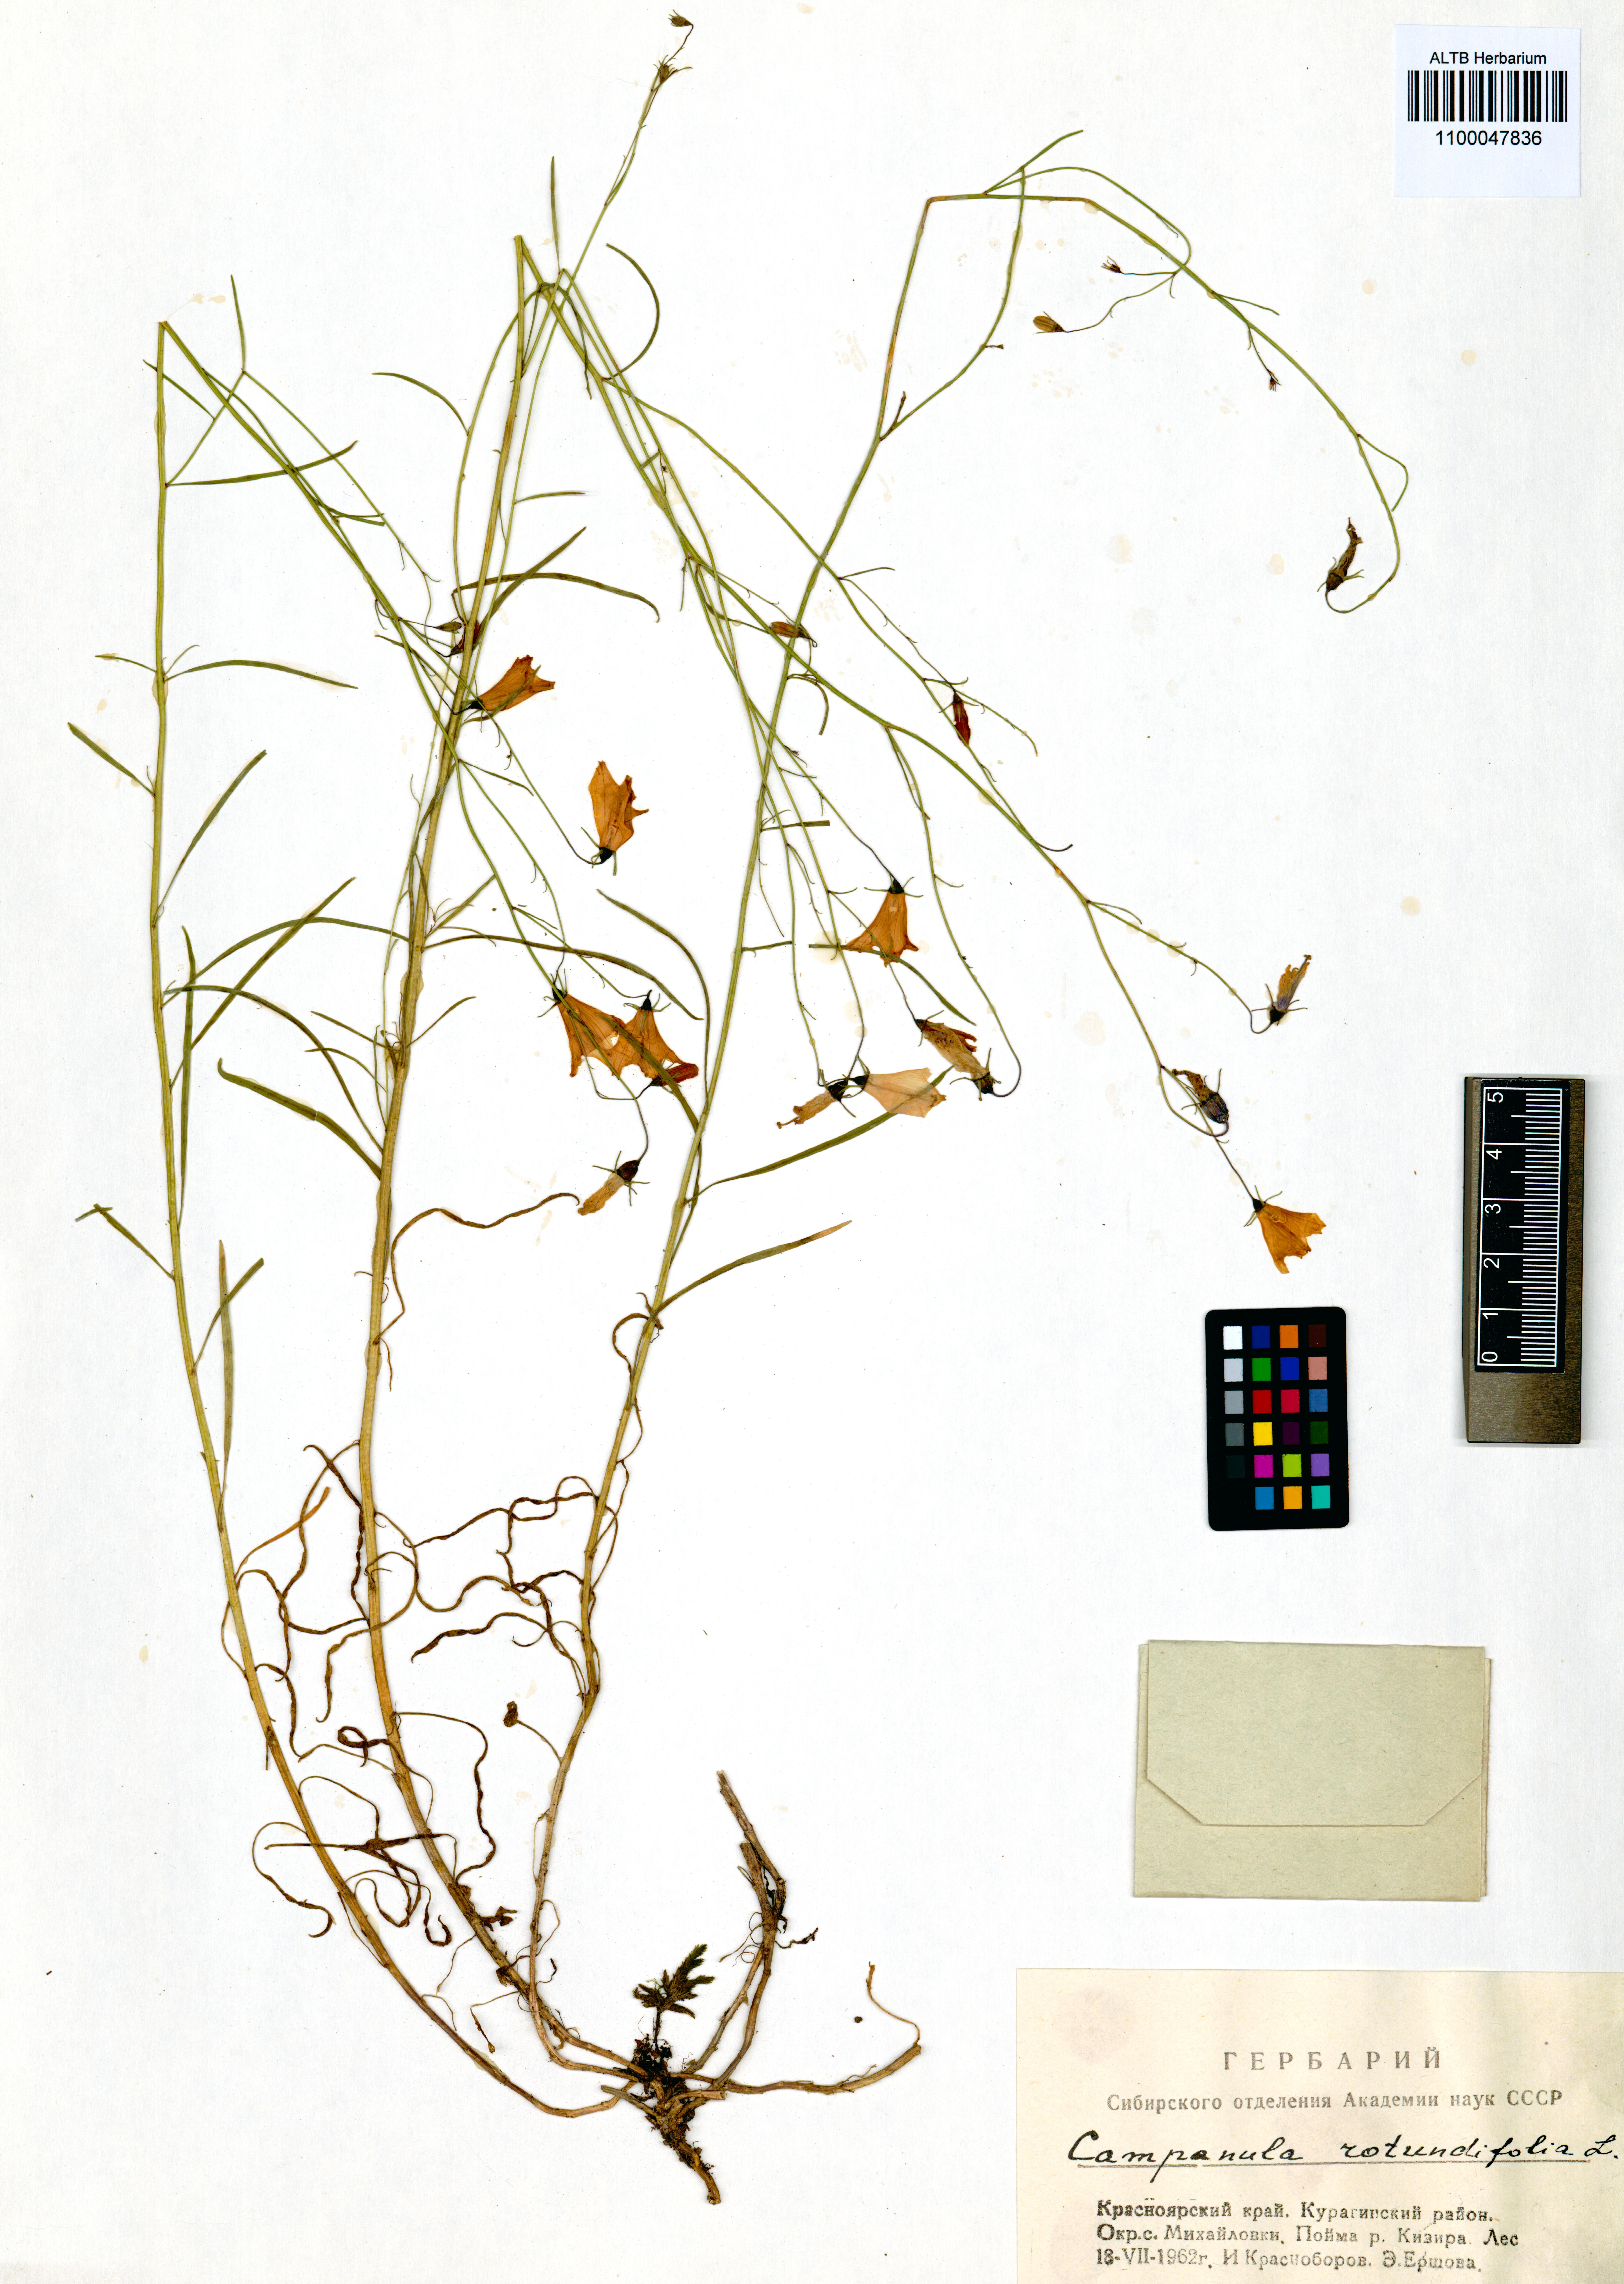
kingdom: Plantae
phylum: Tracheophyta
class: Magnoliopsida
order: Asterales
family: Campanulaceae
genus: Campanula
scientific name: Campanula rotundifolia
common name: Harebell
